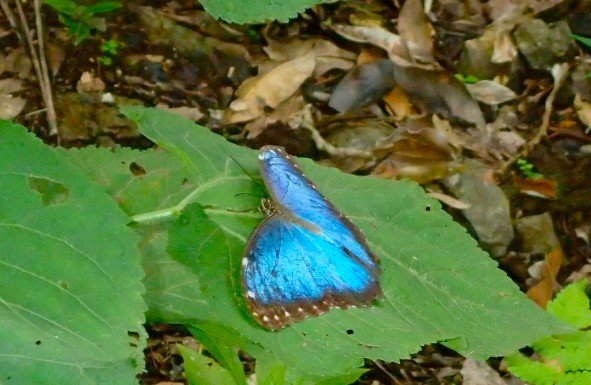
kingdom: Animalia
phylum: Arthropoda
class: Insecta
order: Lepidoptera
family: Nymphalidae
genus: Morpho
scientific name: Morpho helenor
